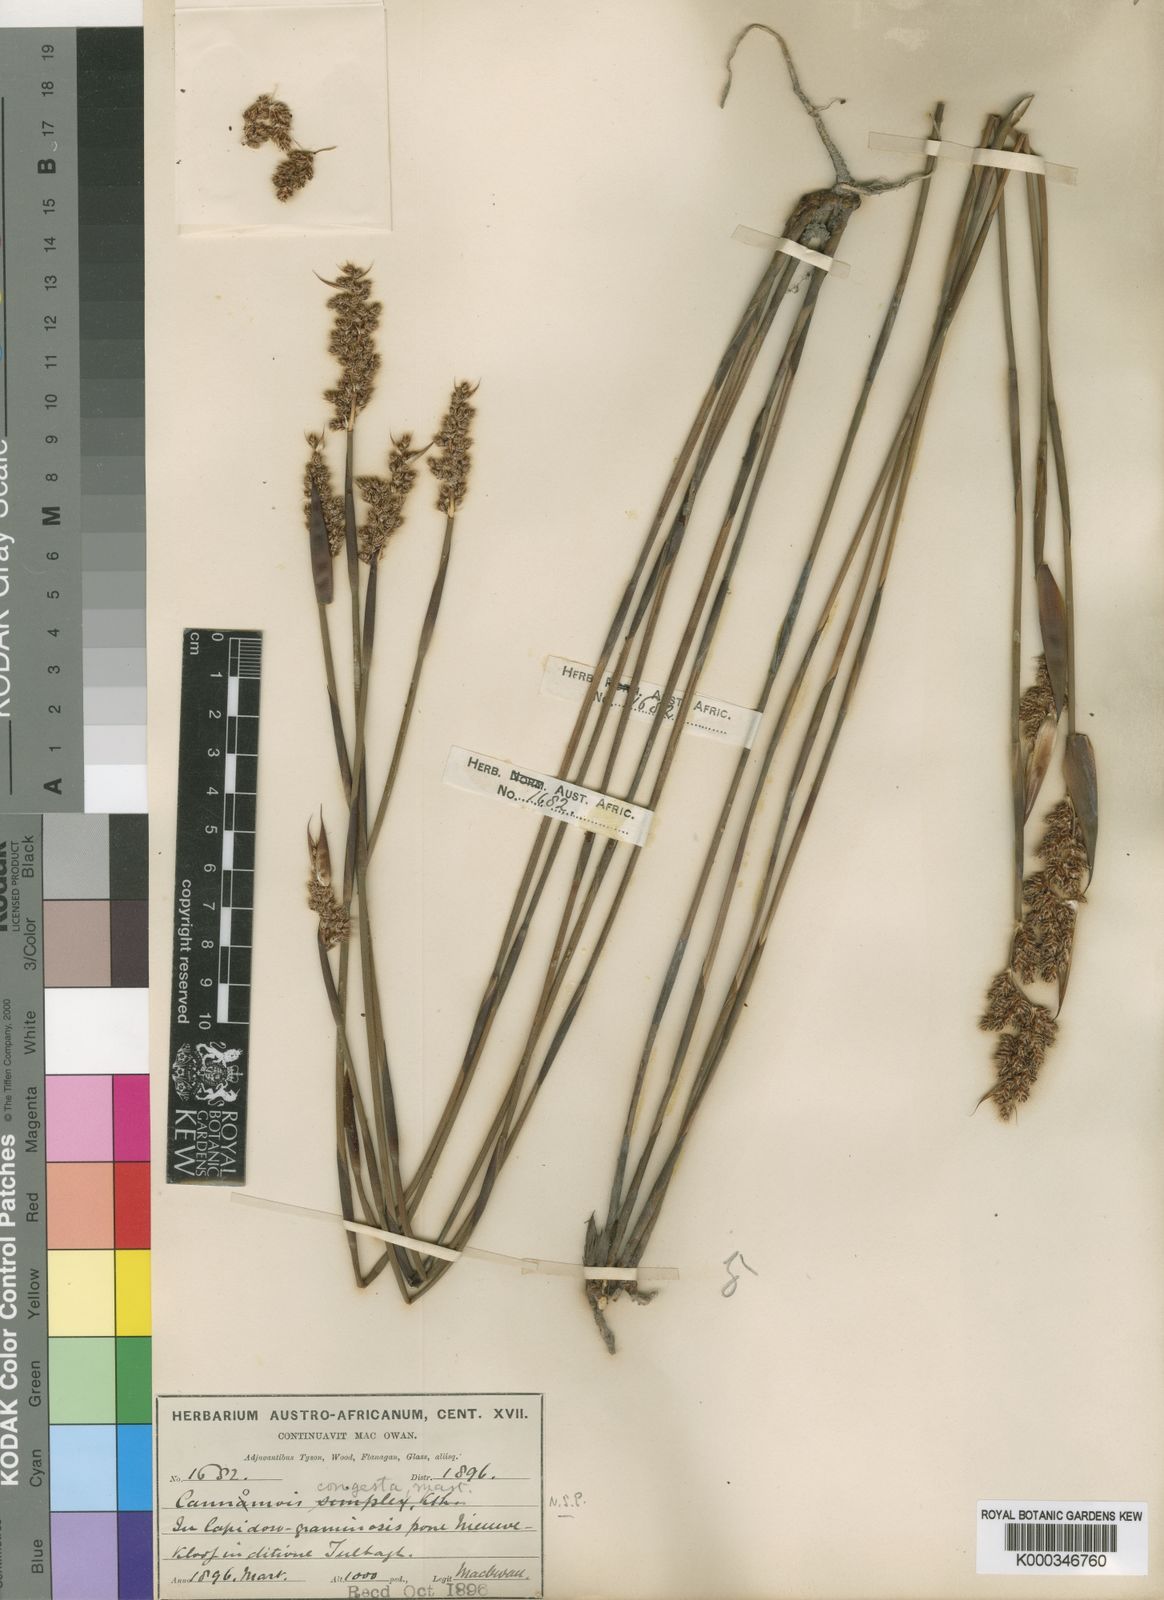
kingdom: Plantae
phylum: Tracheophyta
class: Liliopsida
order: Poales
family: Restionaceae
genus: Cannomois
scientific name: Cannomois congesta
